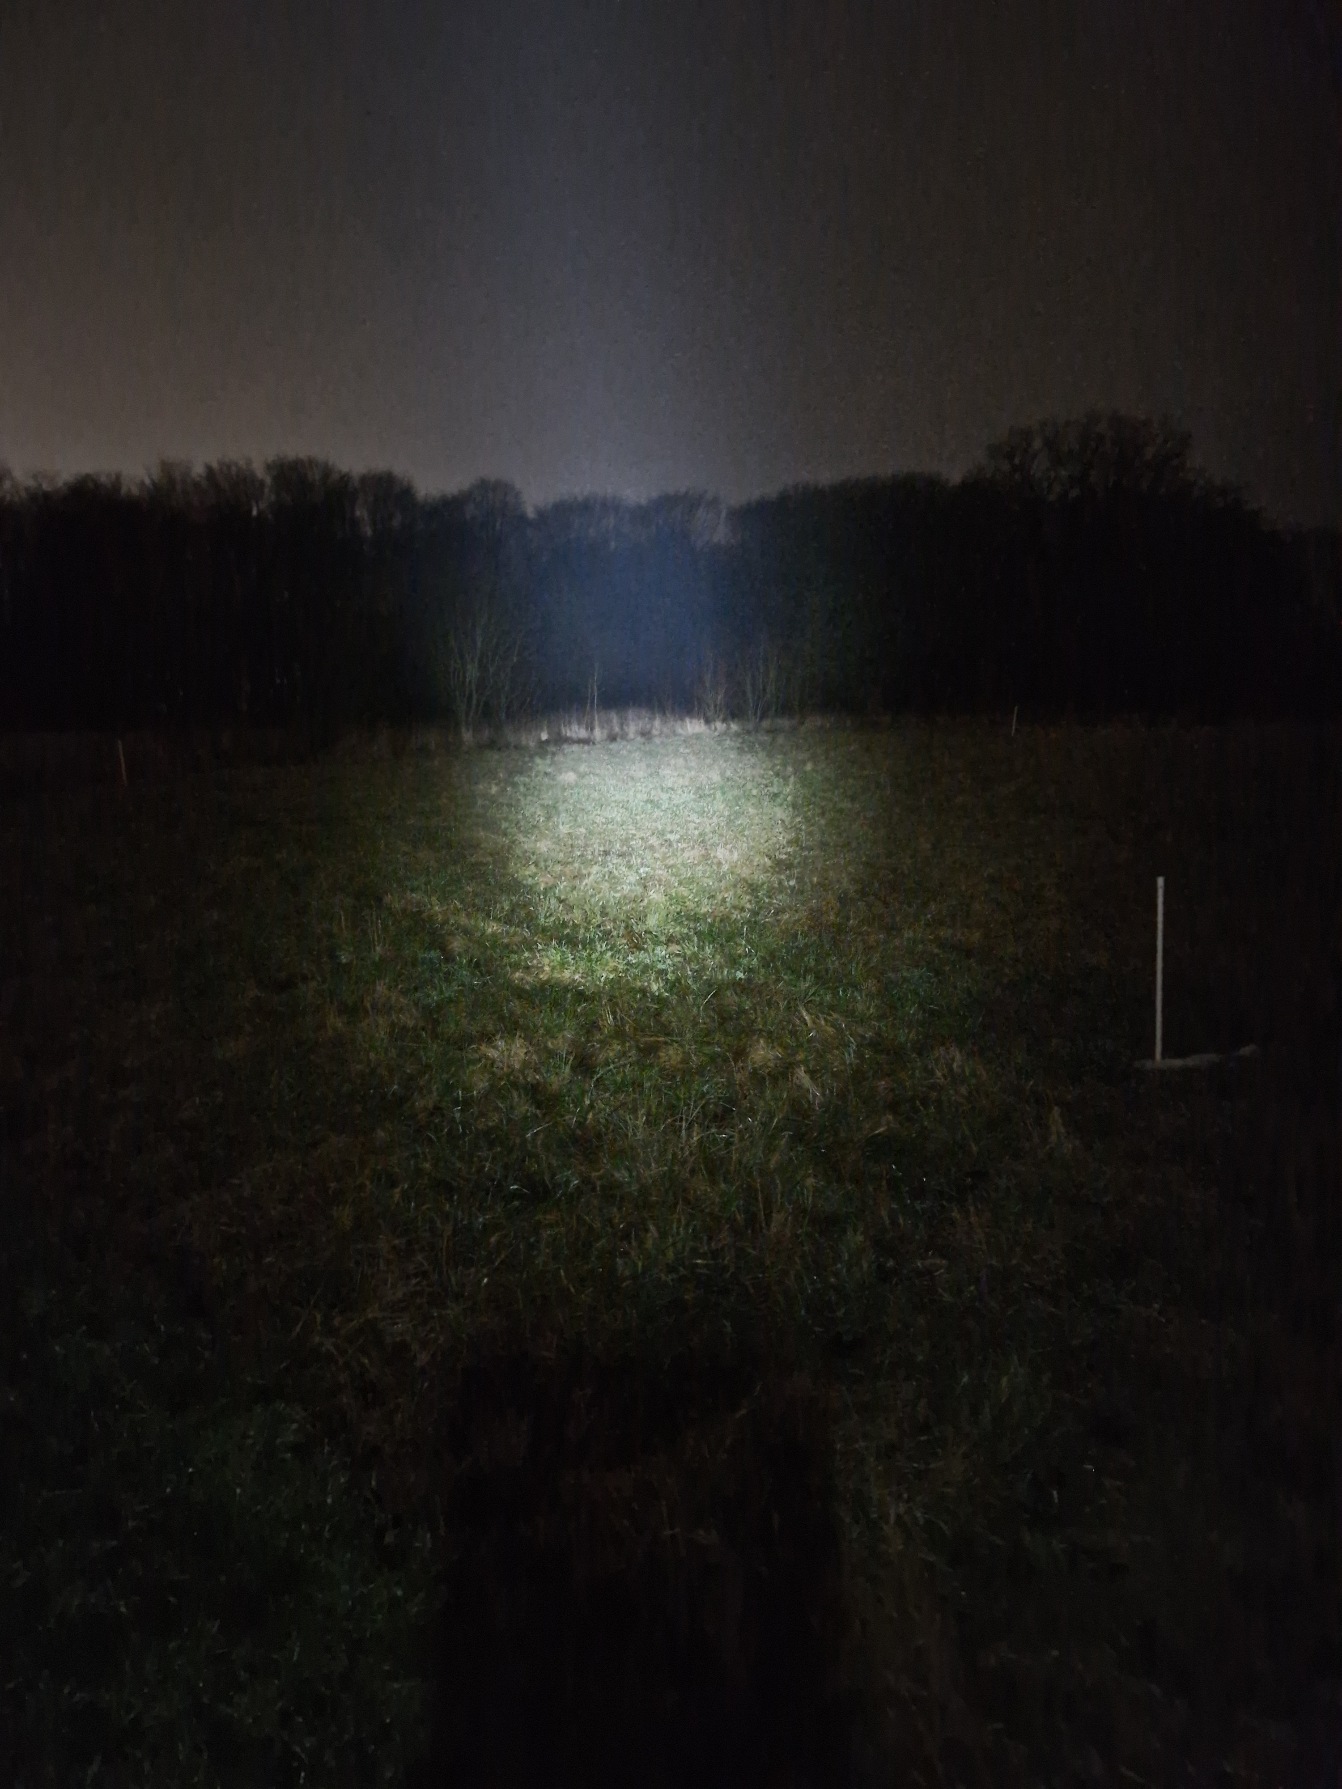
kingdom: Animalia
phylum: Chordata
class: Mammalia
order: Lagomorpha
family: Leporidae
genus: Lepus
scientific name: Lepus europaeus
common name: Hare
